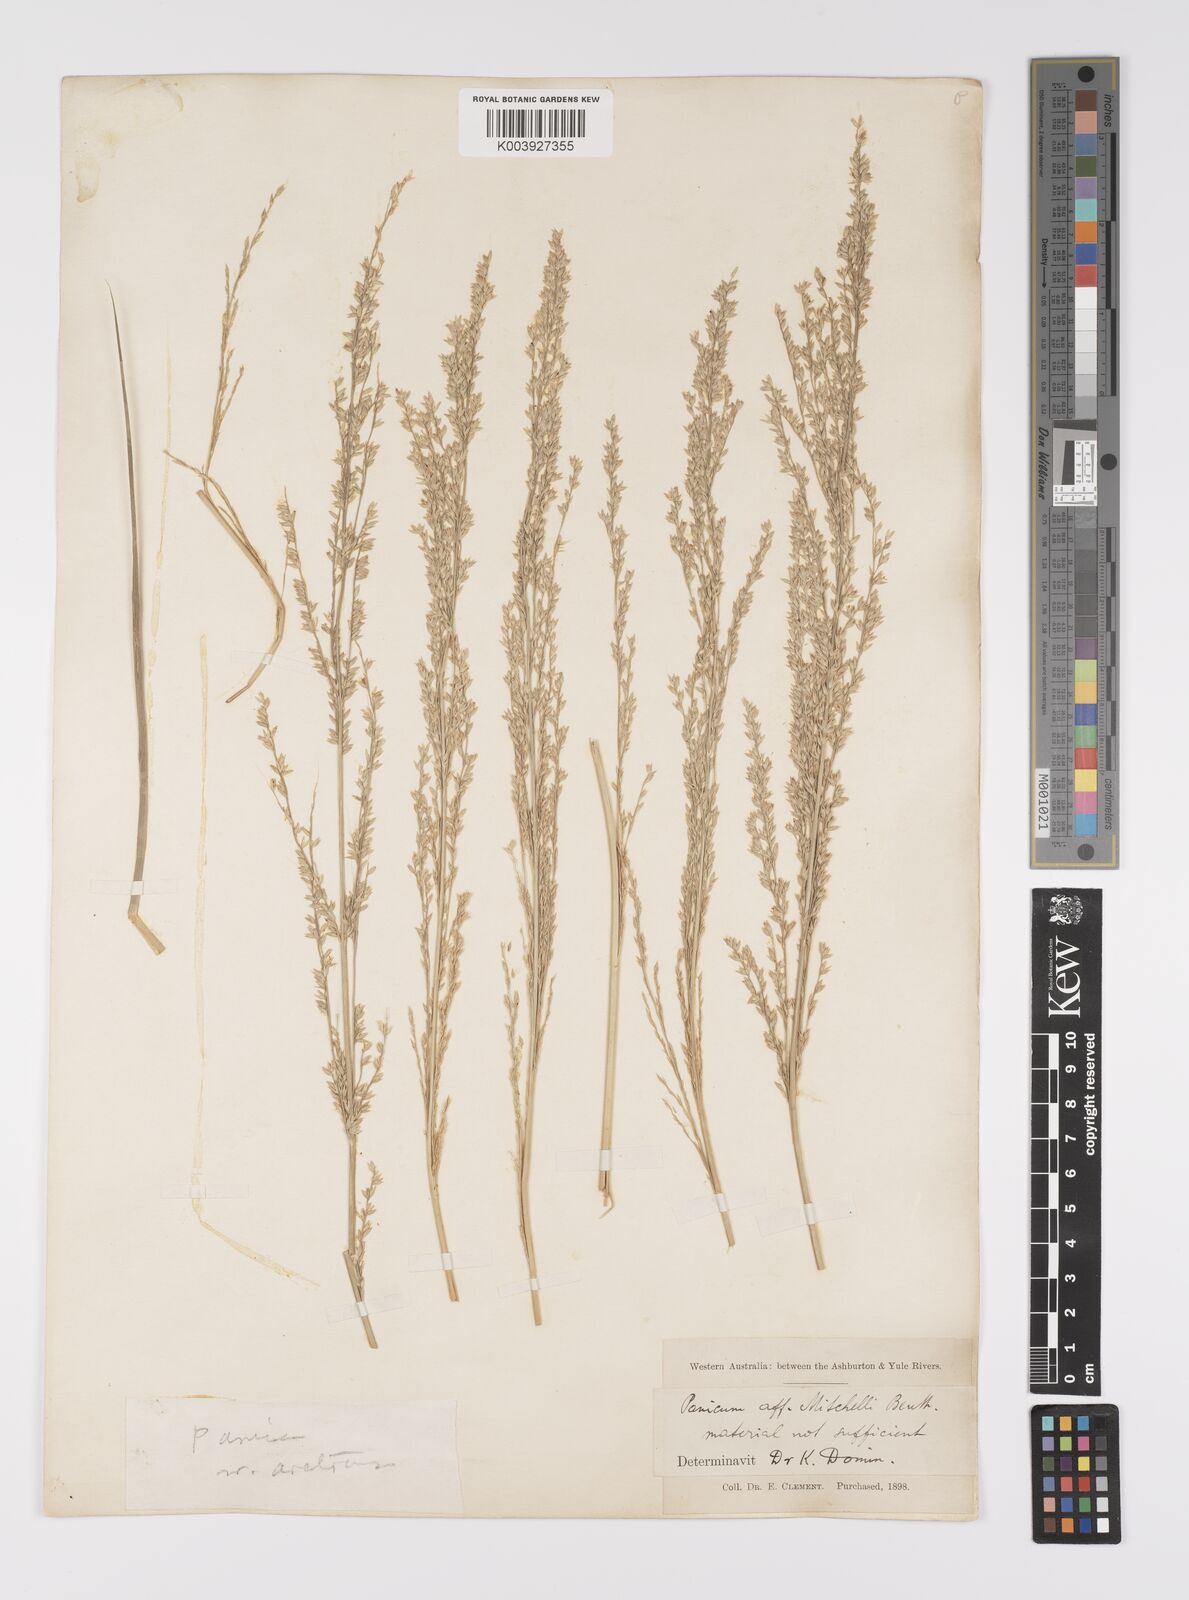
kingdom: Plantae
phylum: Tracheophyta
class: Liliopsida
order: Poales
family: Poaceae
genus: Whiteochloa
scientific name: Whiteochloa cymbiformis
